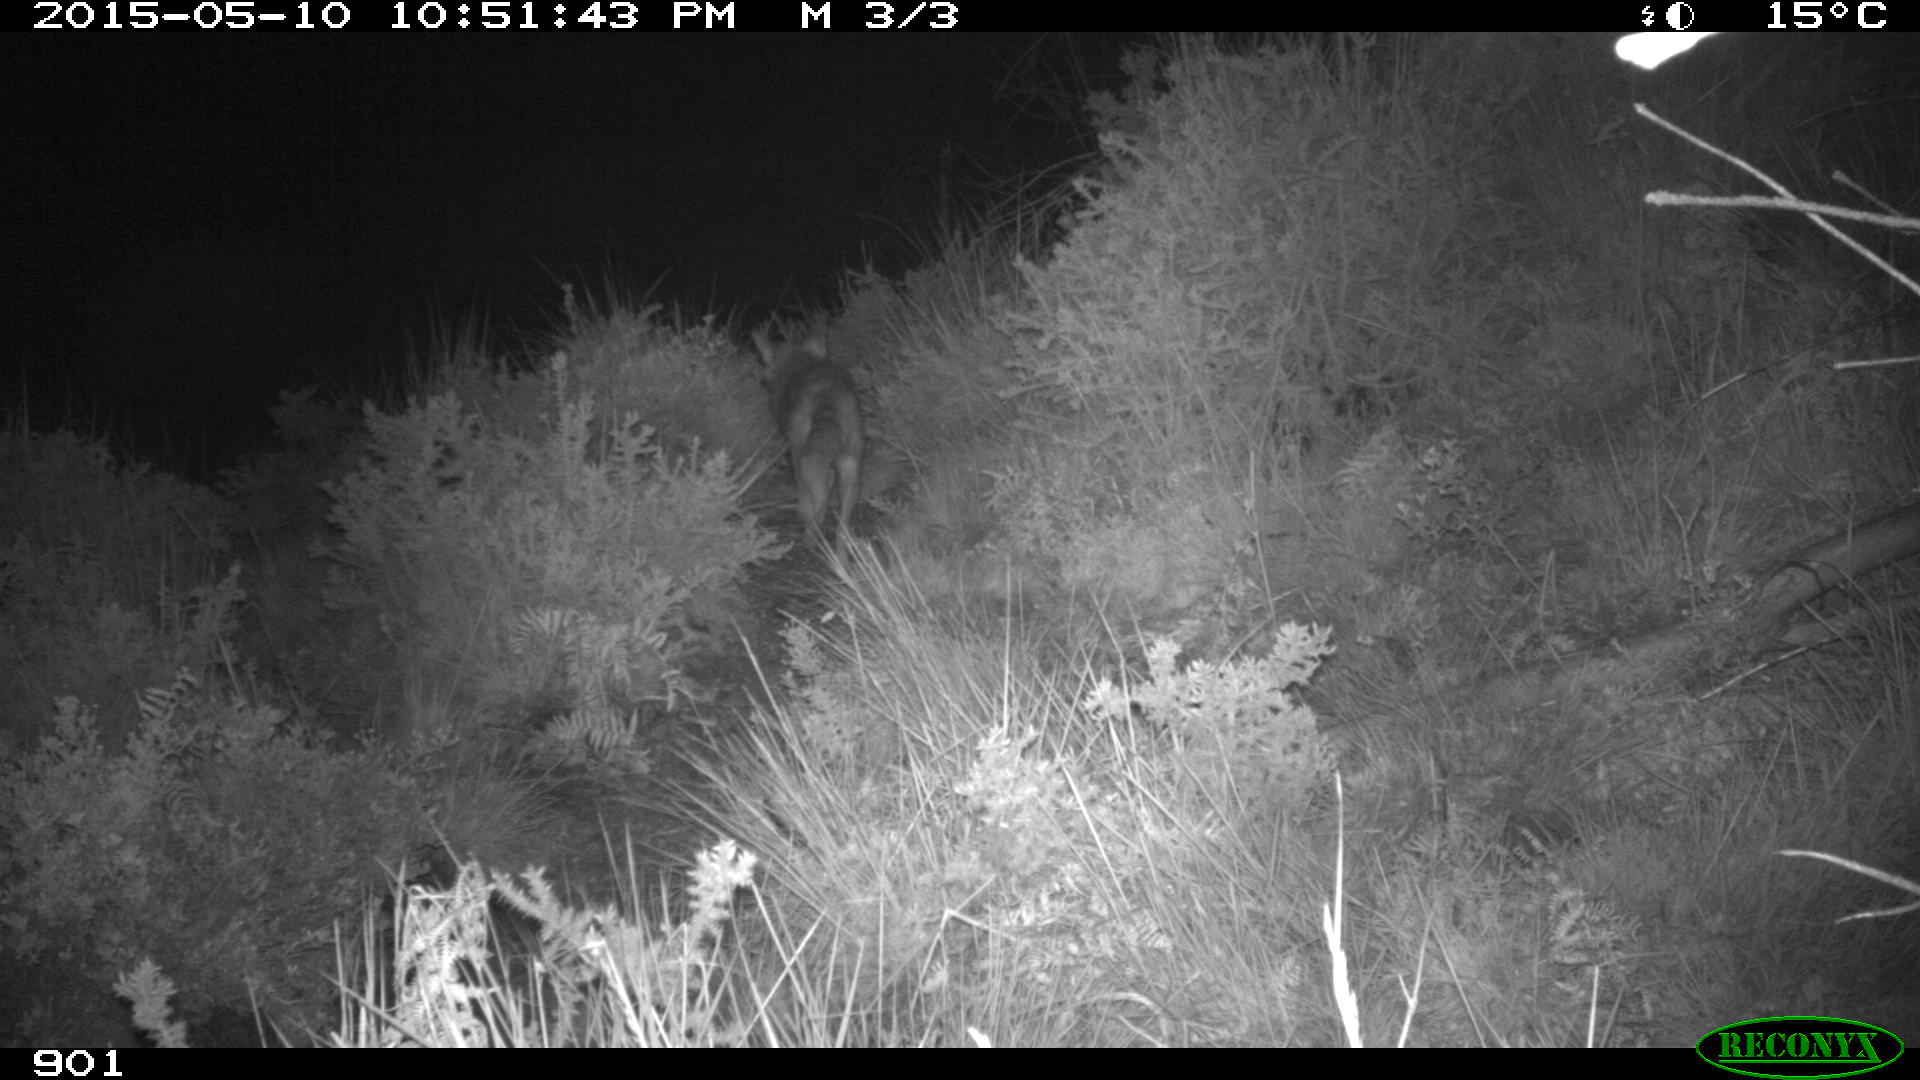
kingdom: Animalia
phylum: Chordata
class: Mammalia
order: Carnivora
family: Canidae
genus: Vulpes
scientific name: Vulpes vulpes
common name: Red fox
